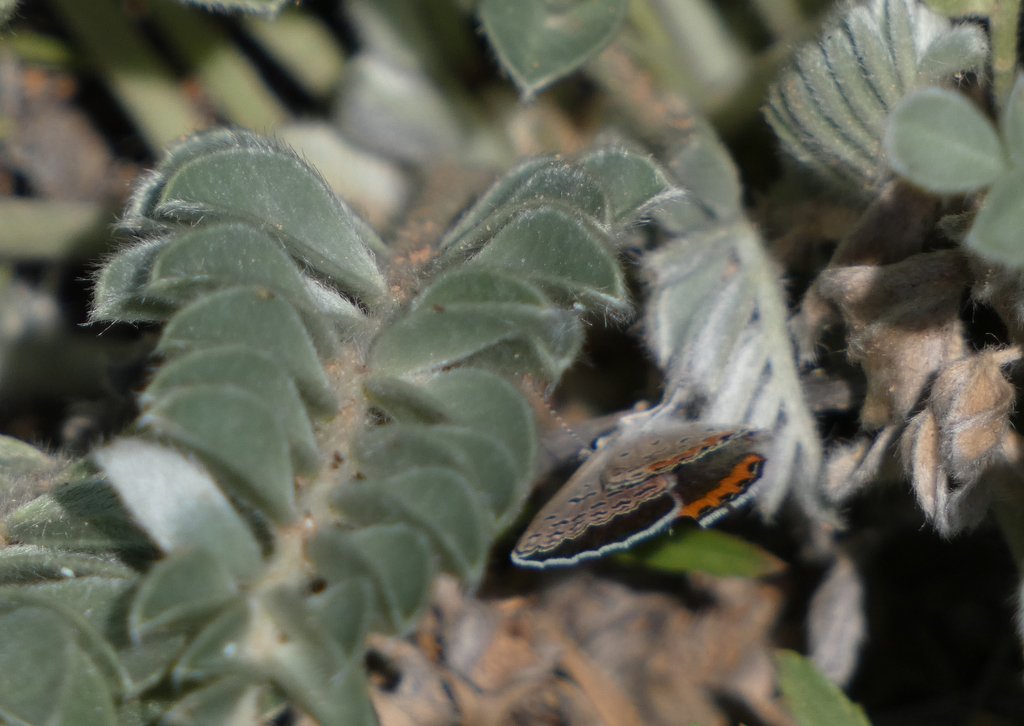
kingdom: Animalia
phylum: Arthropoda
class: Insecta
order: Lepidoptera
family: Lycaenidae
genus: Plebejus
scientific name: Plebejus lupini
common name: Lupine Blue
